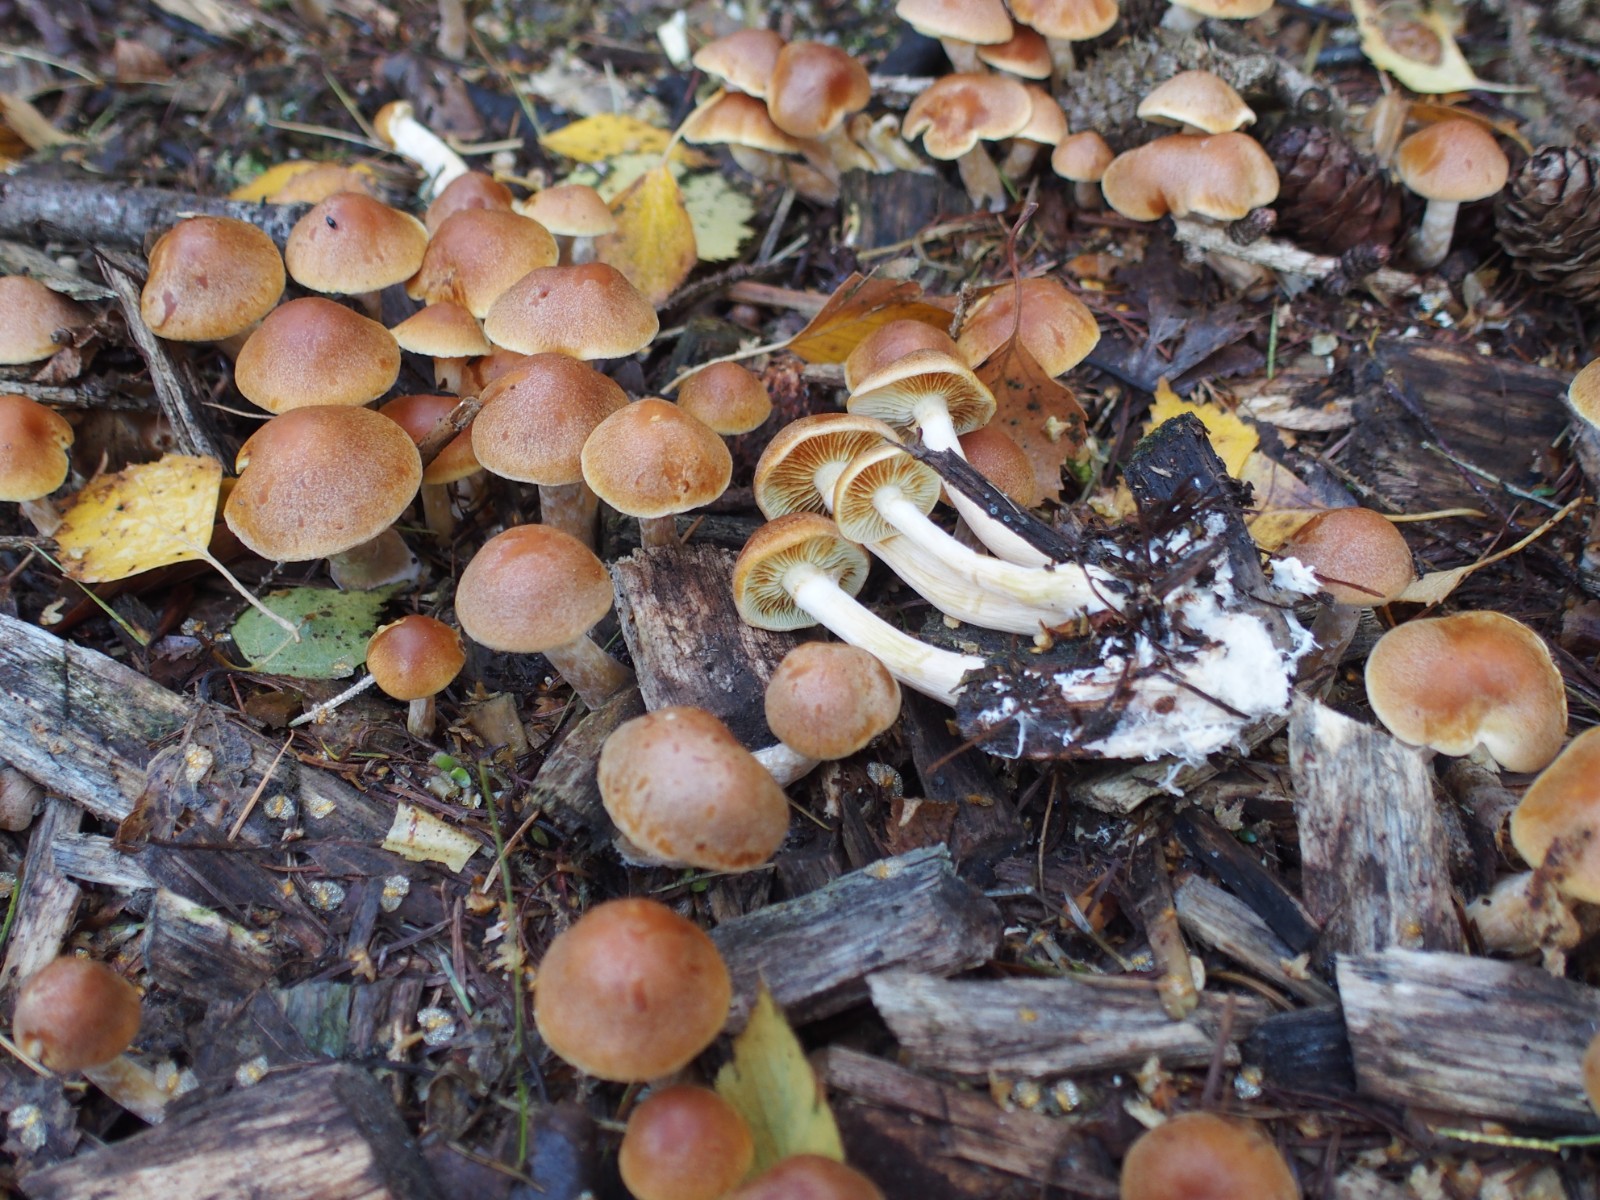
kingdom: Fungi
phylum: Basidiomycota
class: Agaricomycetes
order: Agaricales
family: Hymenogastraceae
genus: Gymnopilus
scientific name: Gymnopilus penetrans
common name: plettet flammehat
